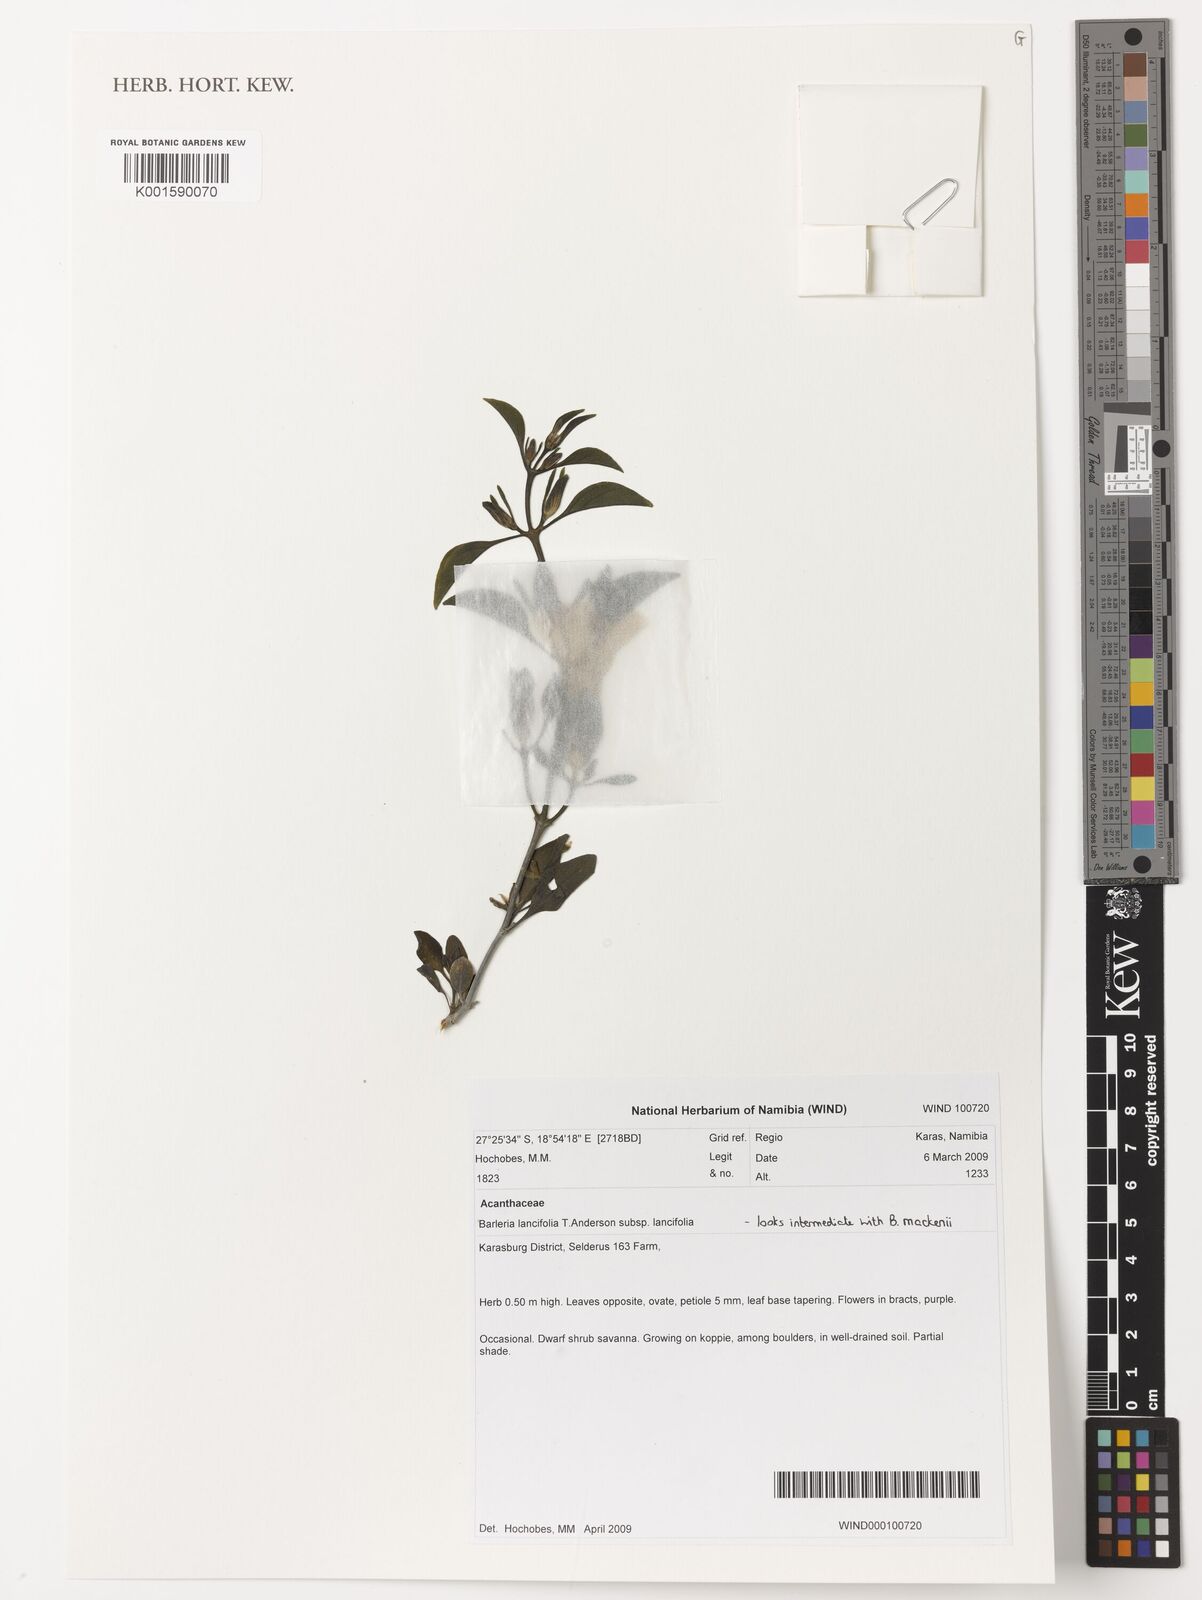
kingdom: Plantae
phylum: Tracheophyta
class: Magnoliopsida
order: Lamiales
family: Acanthaceae
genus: Barleria
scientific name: Barleria lancifolia
